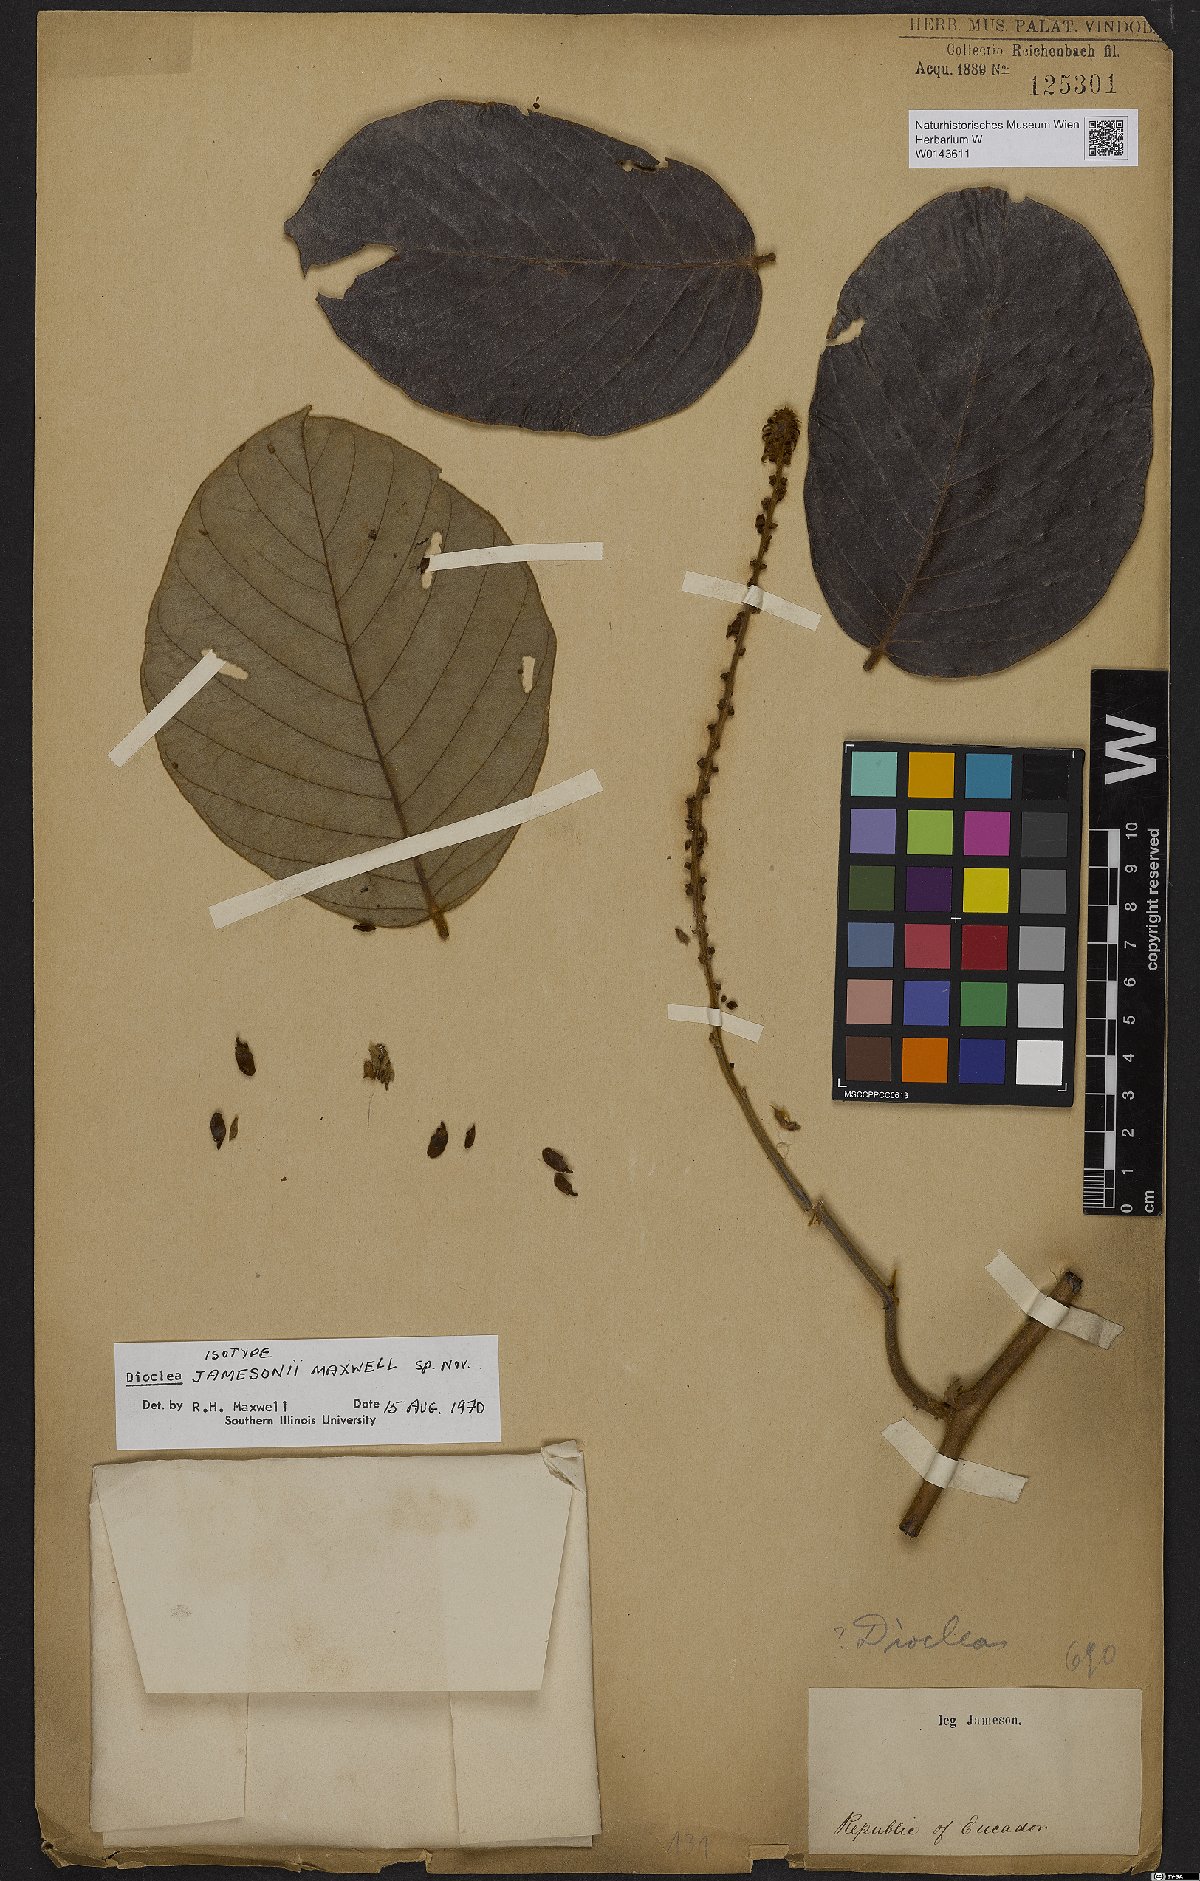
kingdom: Plantae
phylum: Tracheophyta
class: Magnoliopsida
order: Fabales
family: Fabaceae
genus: Macropsychanthus
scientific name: Macropsychanthus jamesonii
